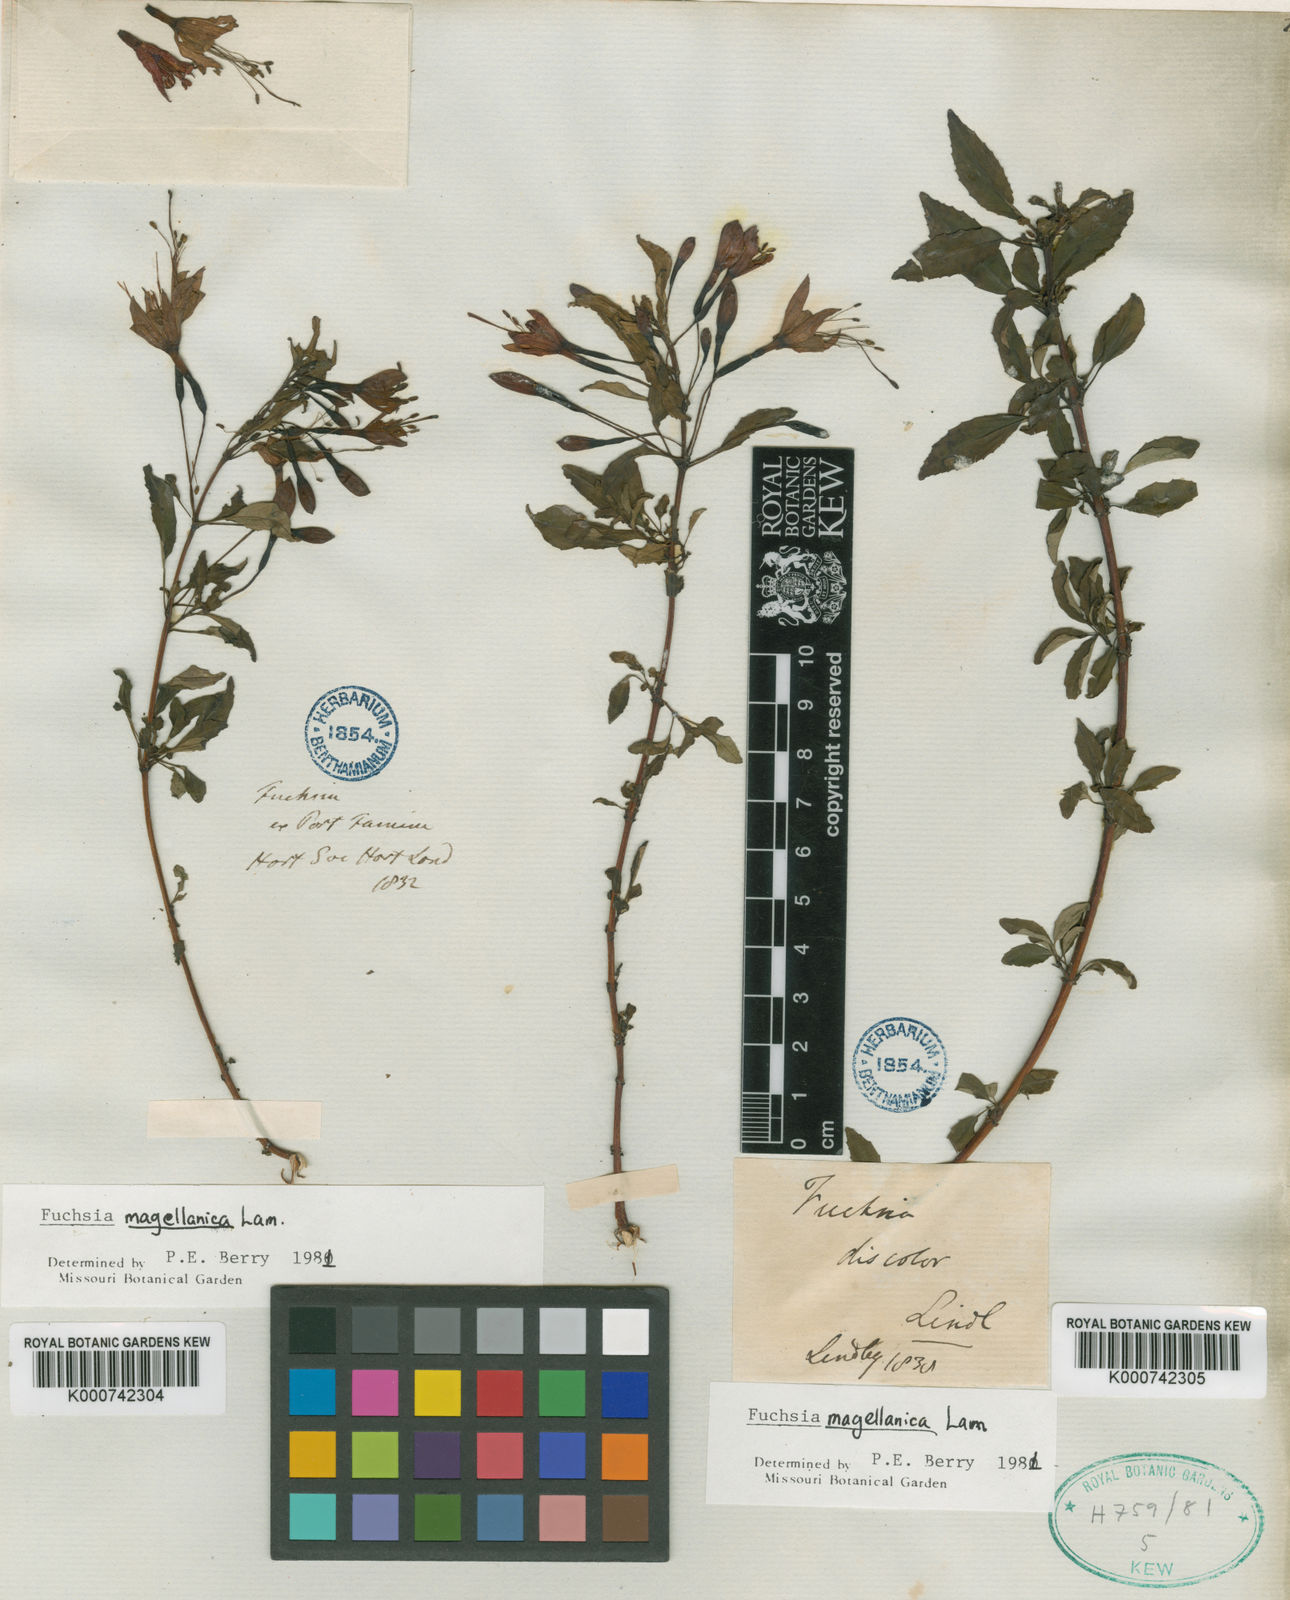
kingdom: Plantae
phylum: Tracheophyta
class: Magnoliopsida
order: Myrtales
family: Onagraceae
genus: Fuchsia
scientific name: Fuchsia magellanica
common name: Hardy fuchsia
